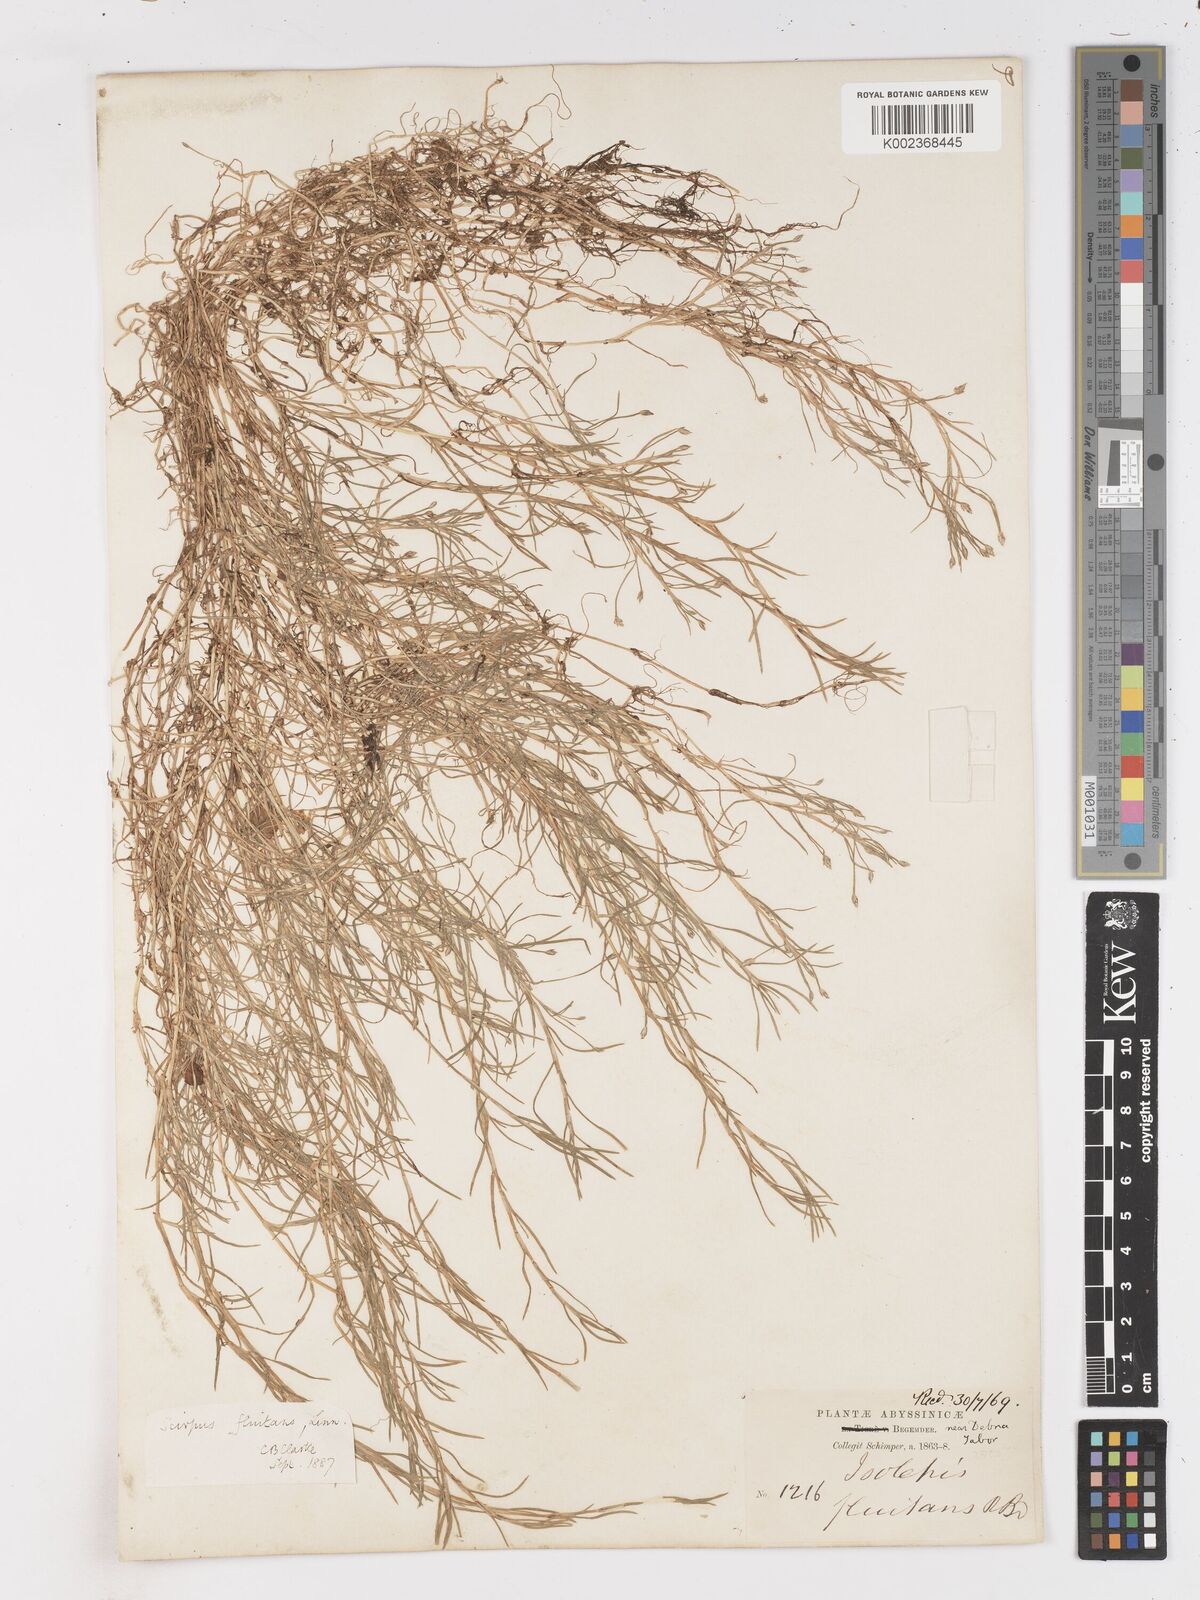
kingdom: Plantae
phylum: Tracheophyta
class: Liliopsida
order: Poales
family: Cyperaceae
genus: Isolepis
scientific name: Isolepis fluitans
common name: Floating club-rush
